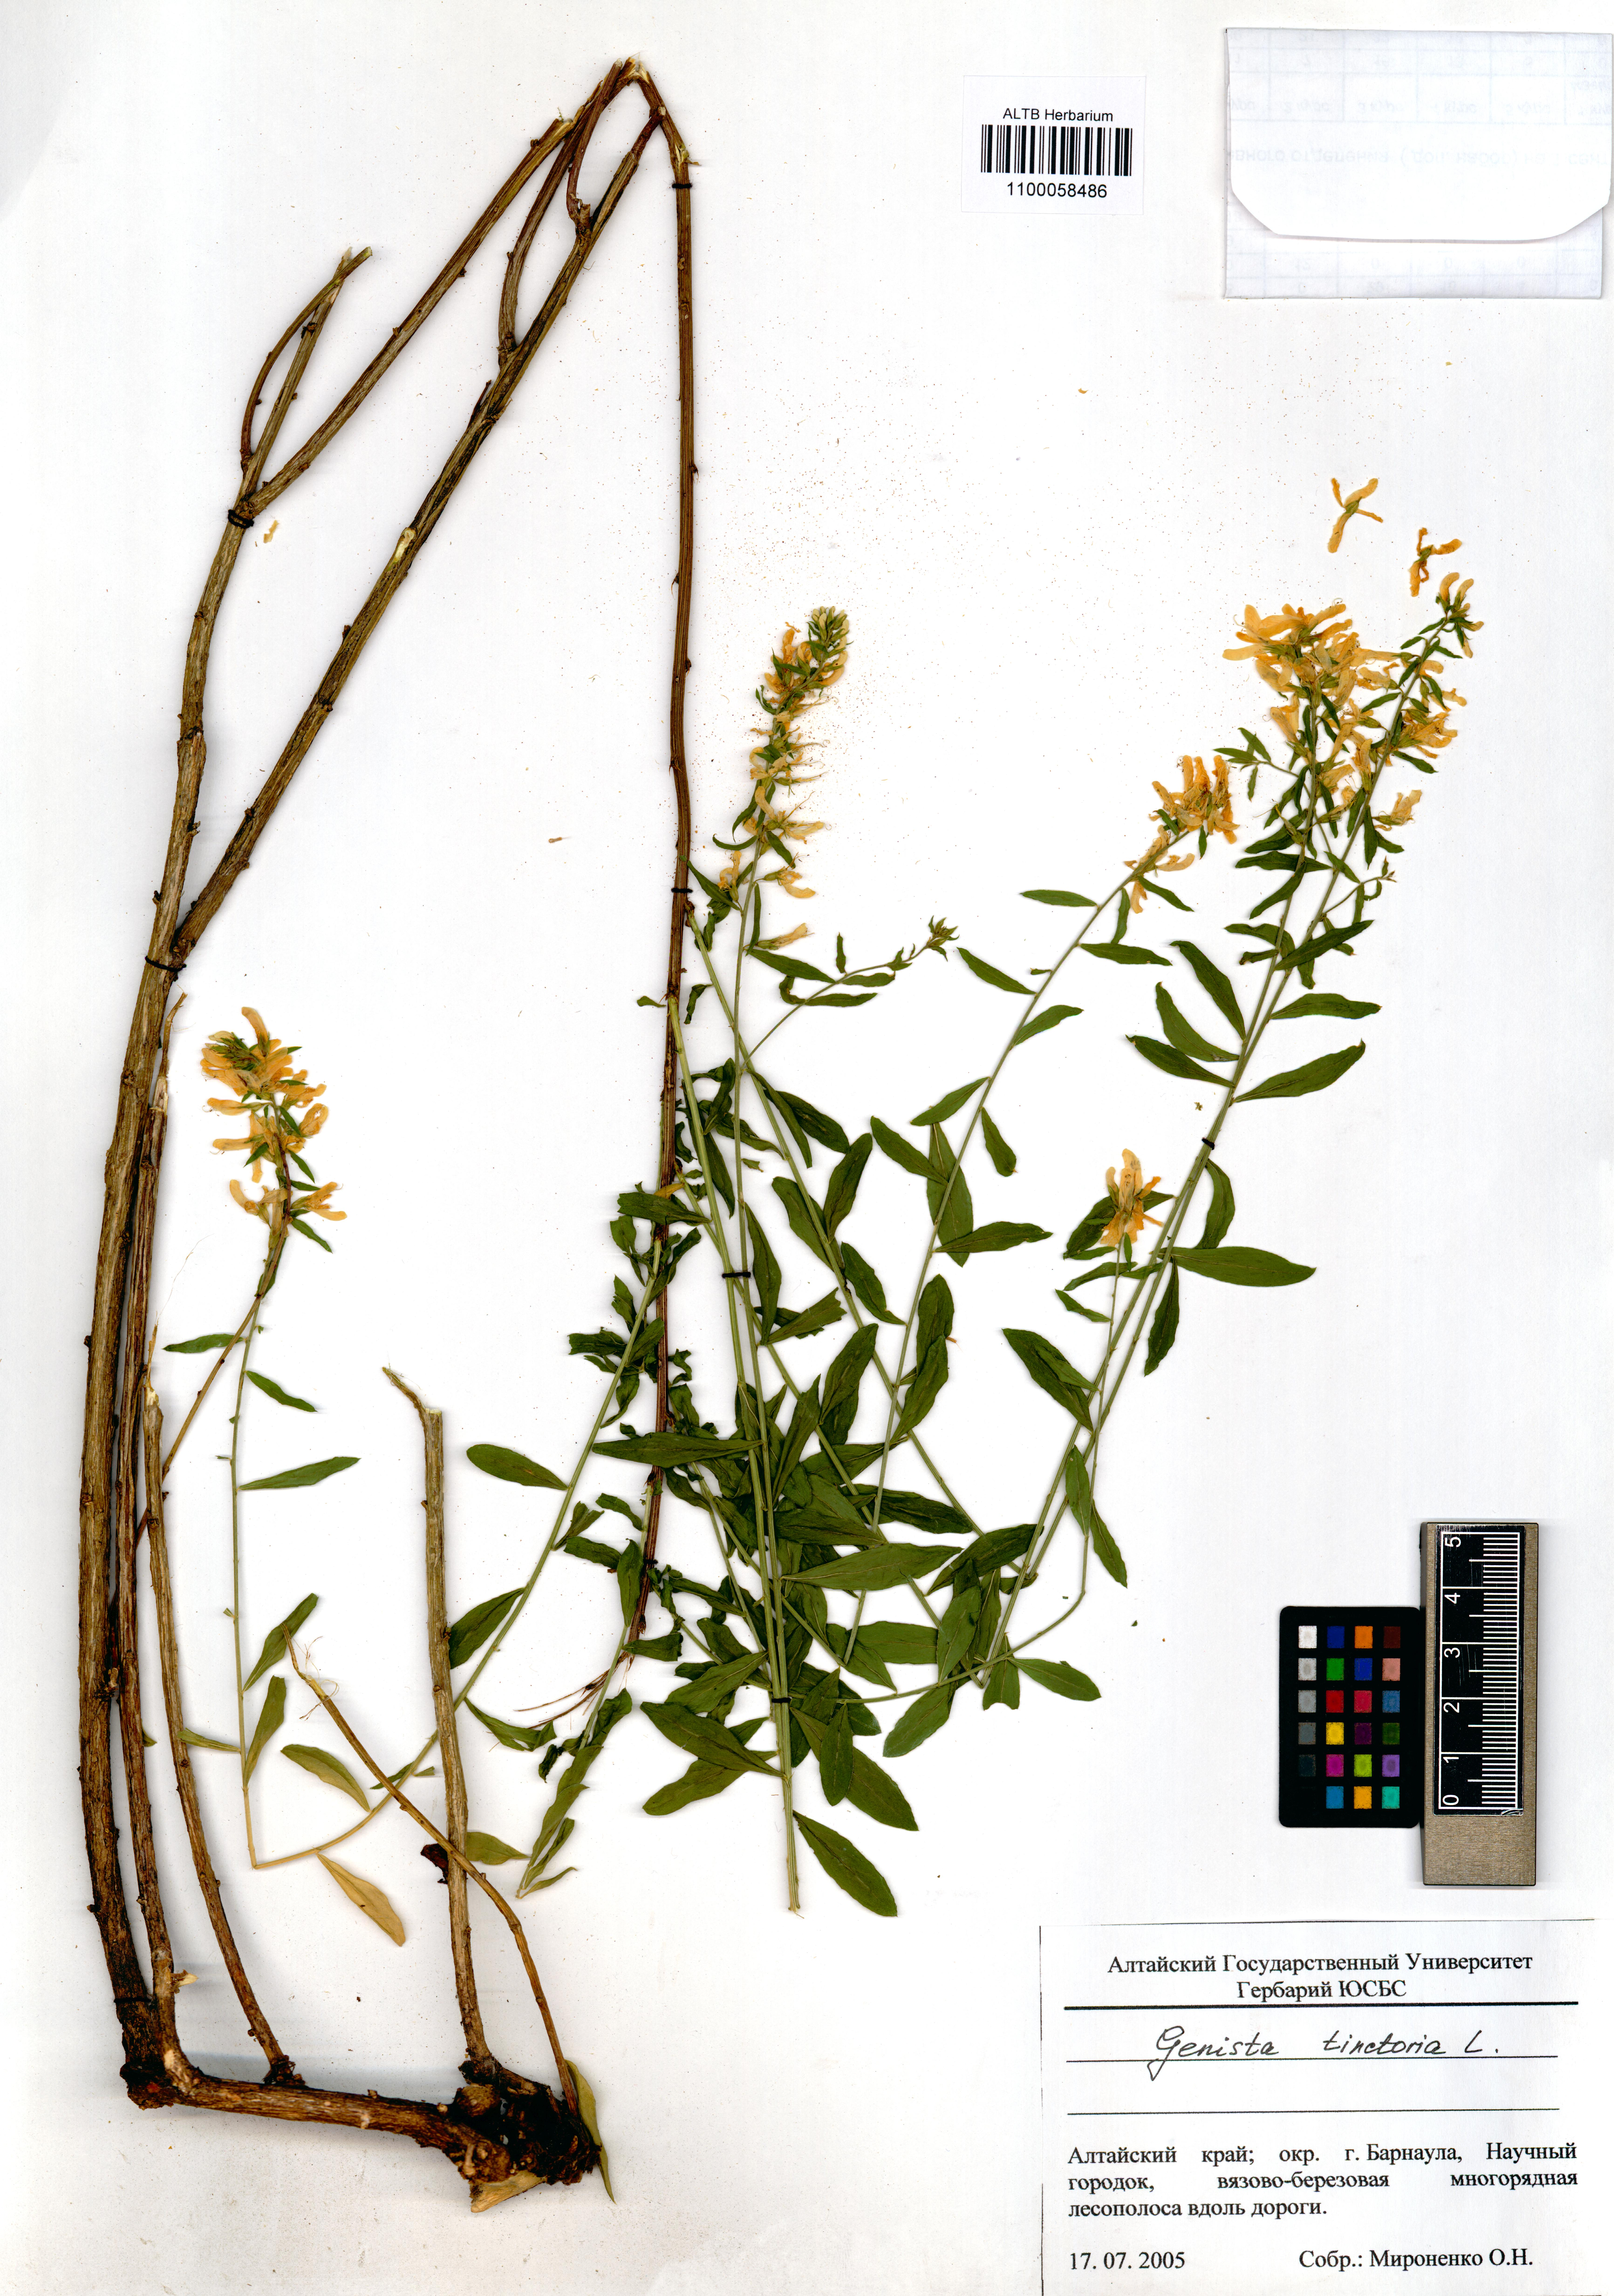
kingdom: Plantae
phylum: Tracheophyta
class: Magnoliopsida
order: Fabales
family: Fabaceae
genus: Genista
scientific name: Genista tinctoria
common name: Dyer's greenweed
